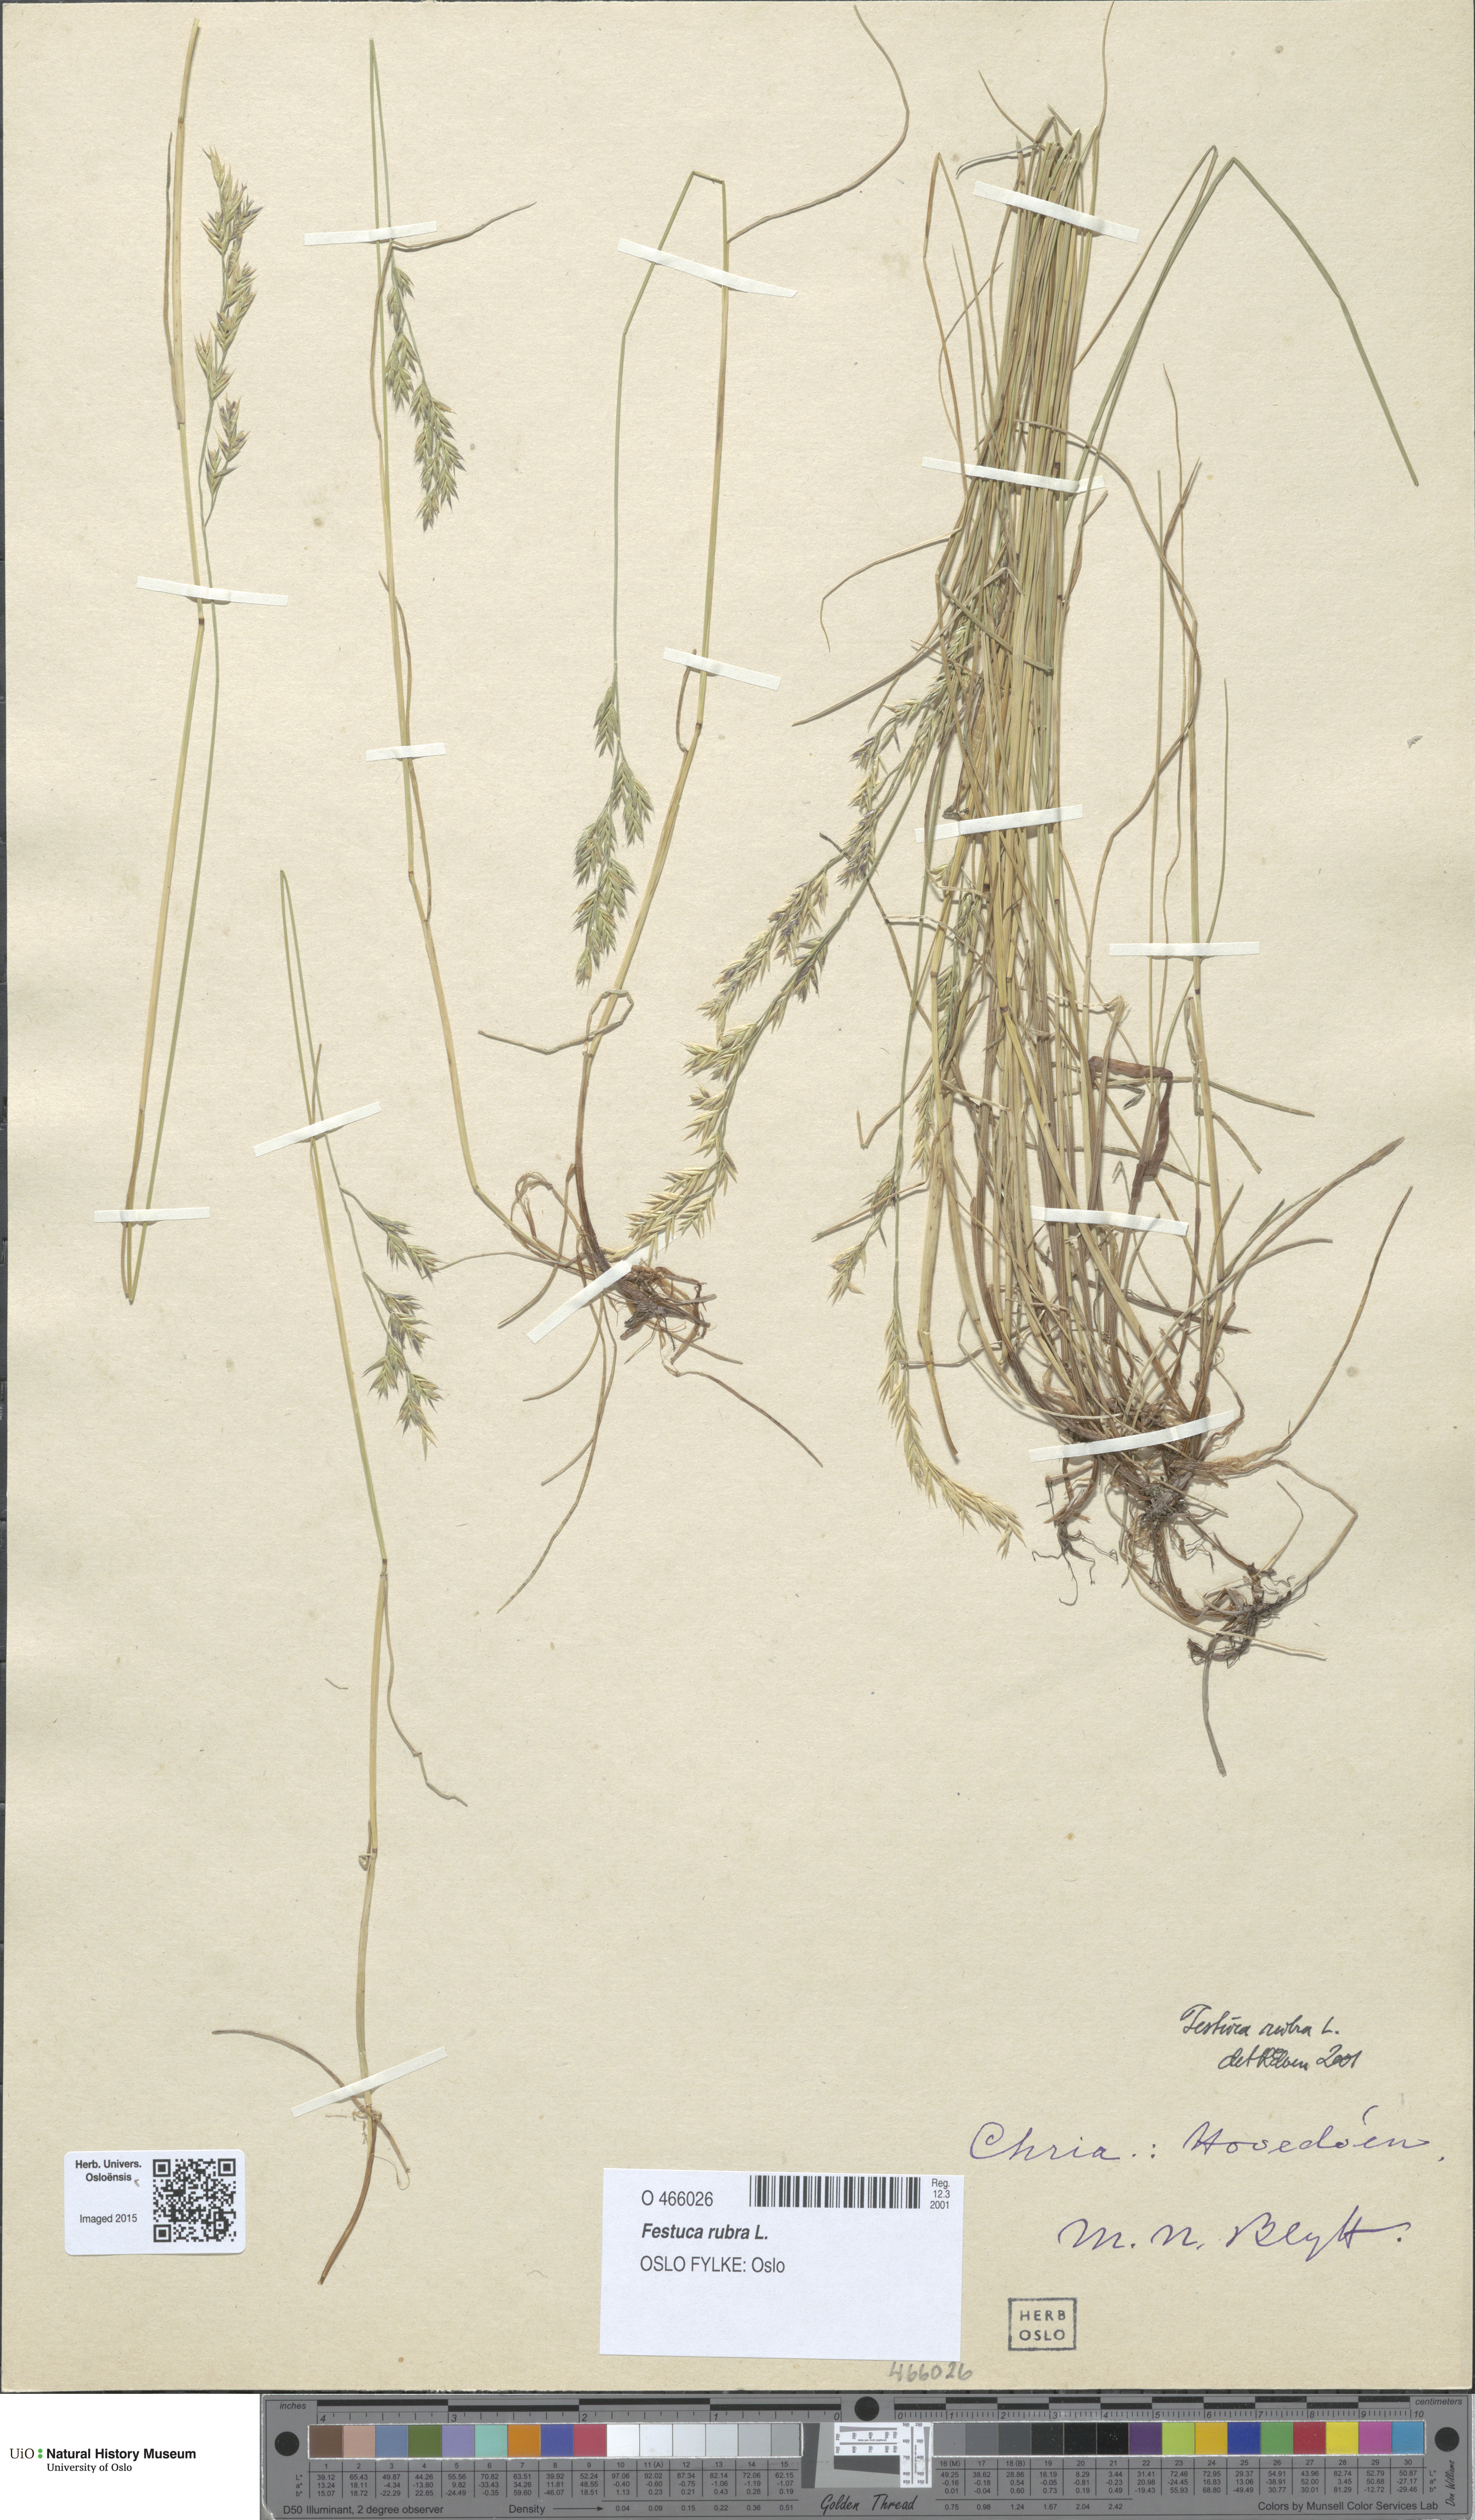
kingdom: Plantae
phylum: Tracheophyta
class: Liliopsida
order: Poales
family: Poaceae
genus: Festuca
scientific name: Festuca rubra
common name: Red fescue
